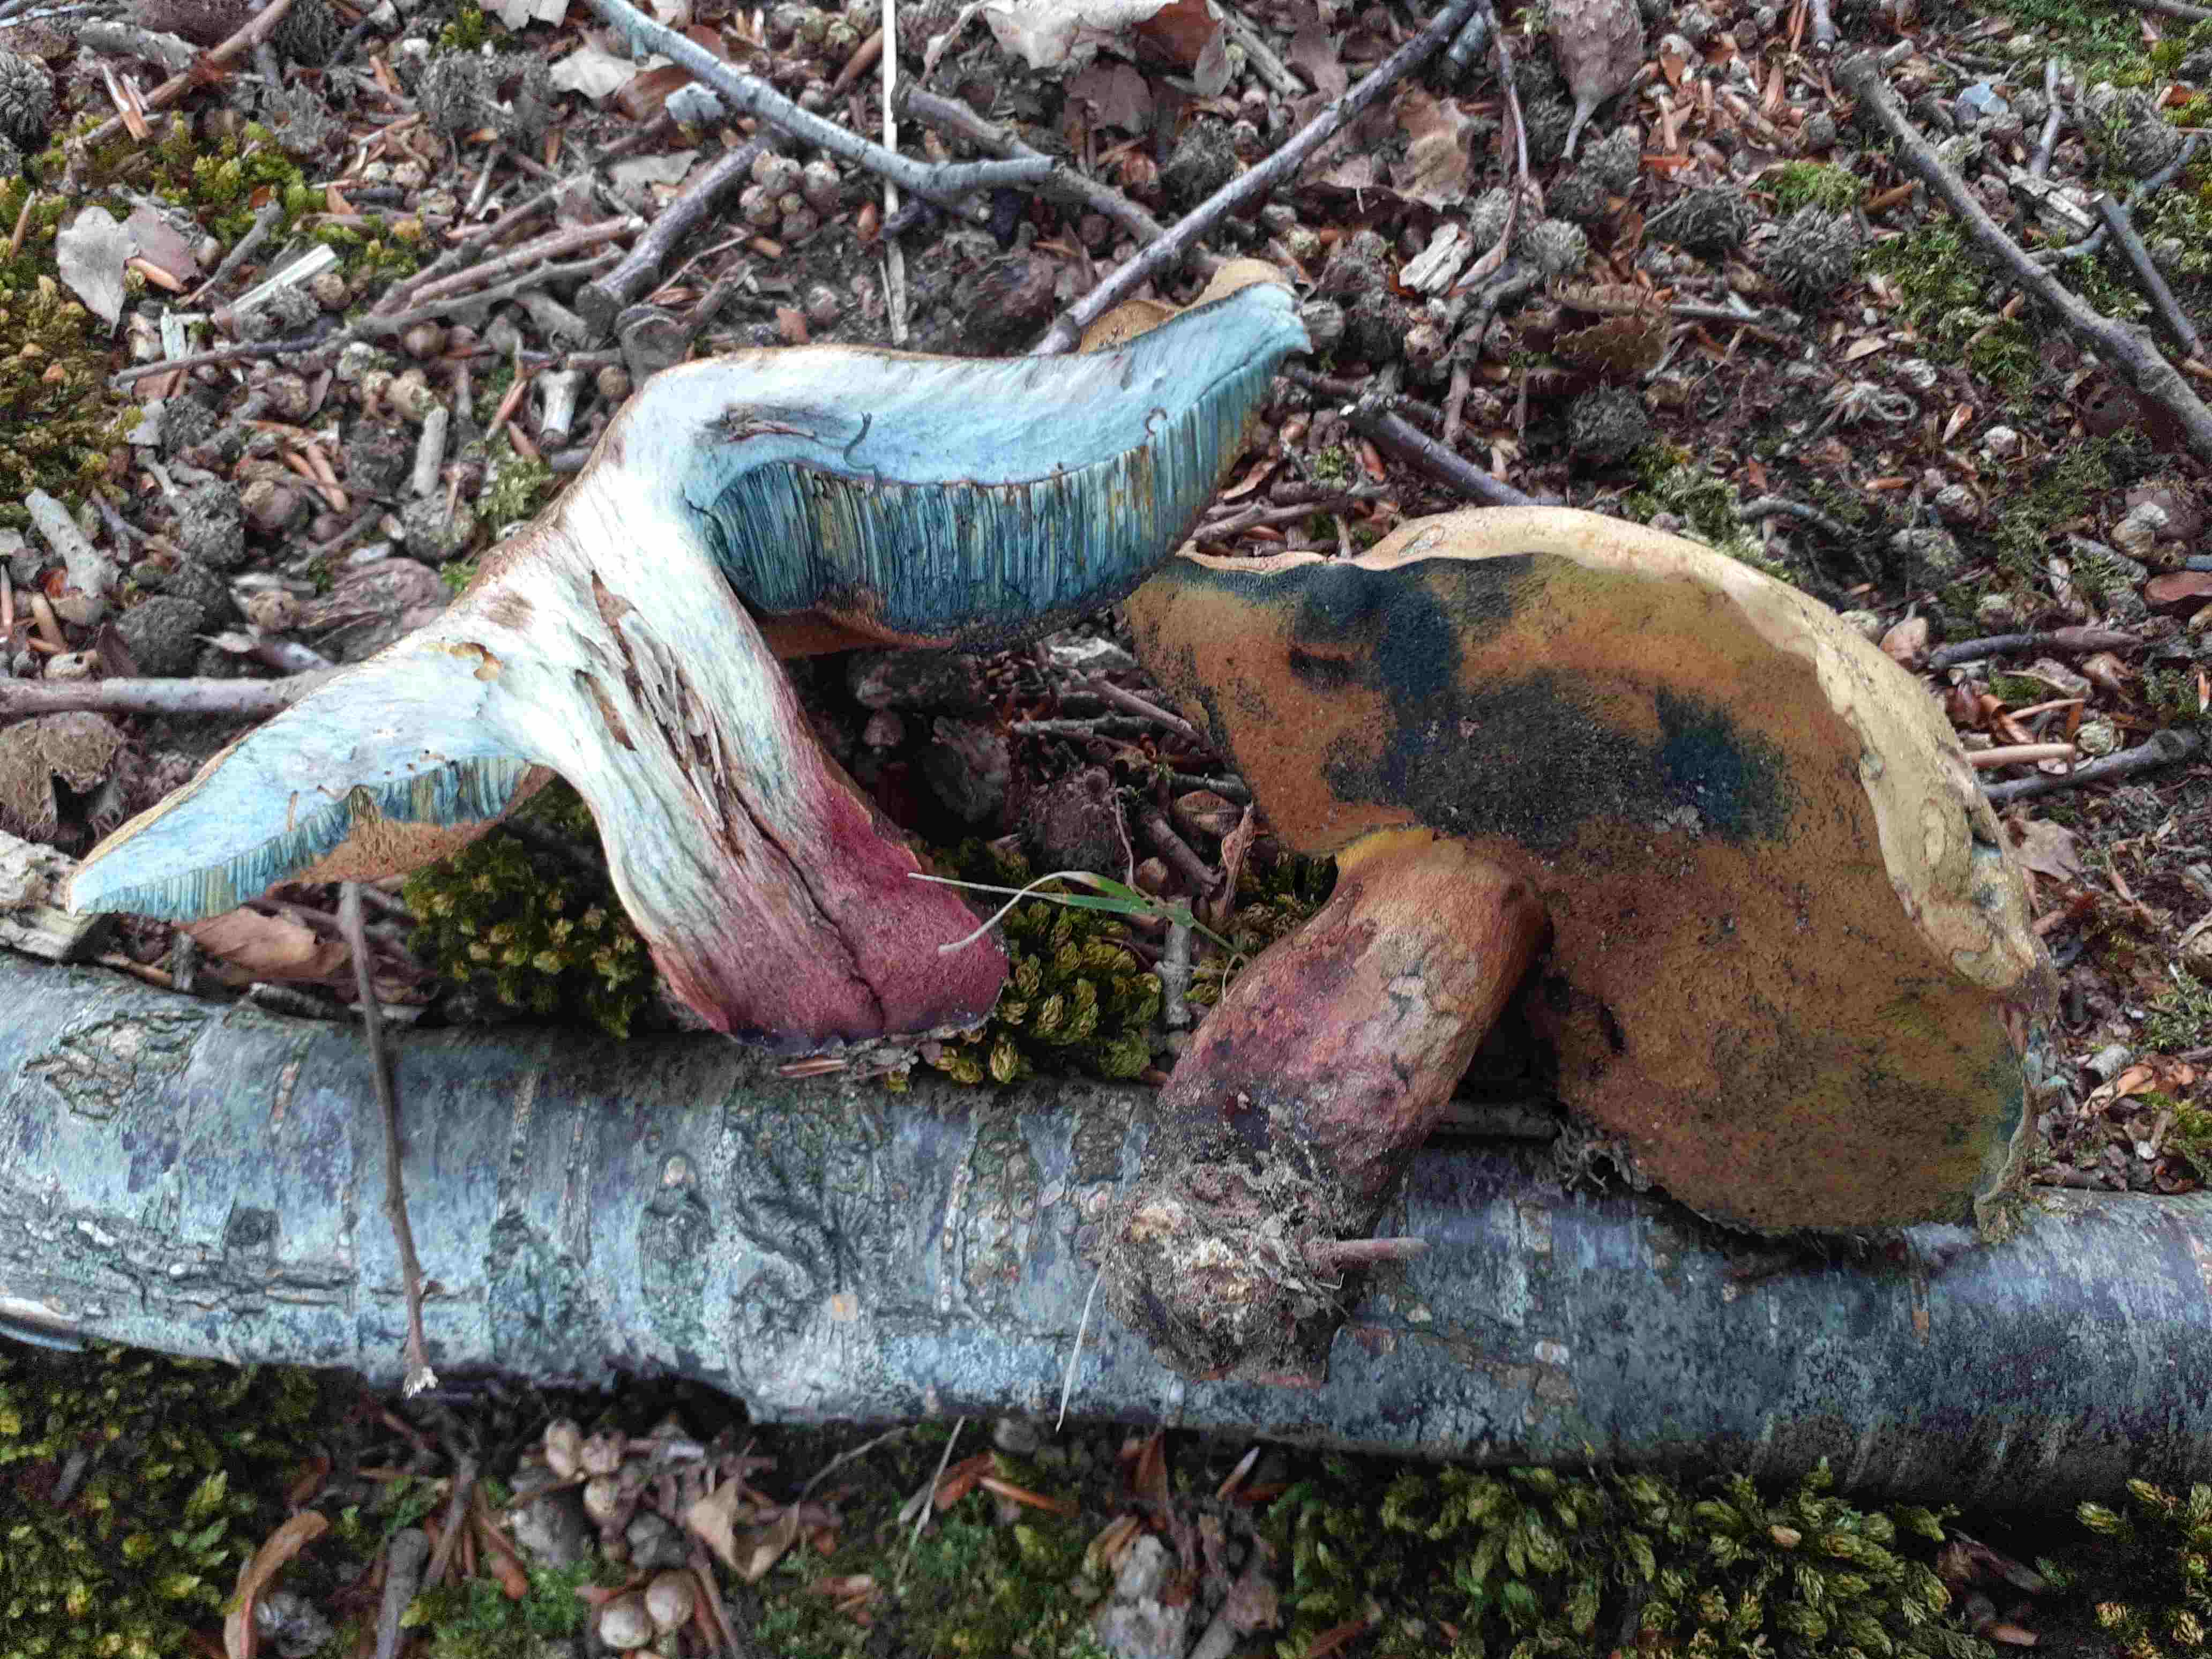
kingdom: Fungi
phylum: Basidiomycota
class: Agaricomycetes
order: Boletales
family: Boletaceae
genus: Suillellus
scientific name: Suillellus queletii
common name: glatstokket indigorørhat
